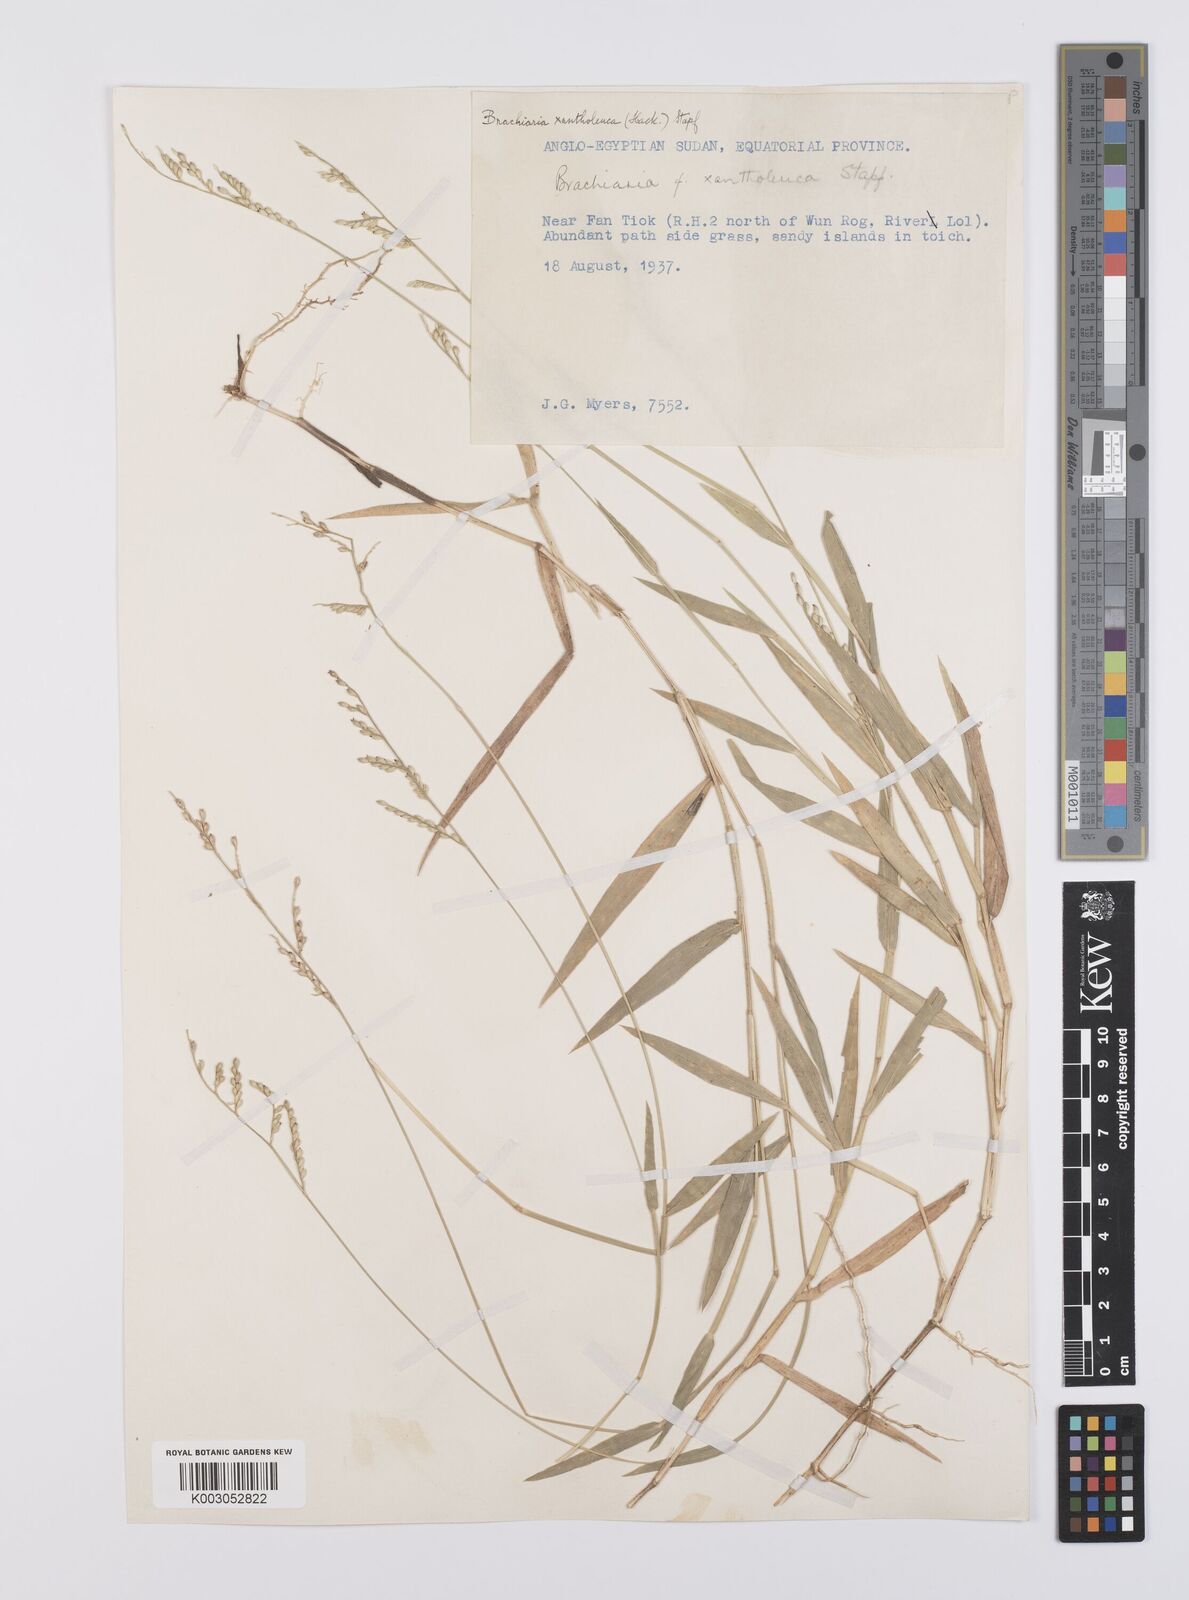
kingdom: Plantae
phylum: Tracheophyta
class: Liliopsida
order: Poales
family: Poaceae
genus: Urochloa
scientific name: Urochloa xantholeuca
